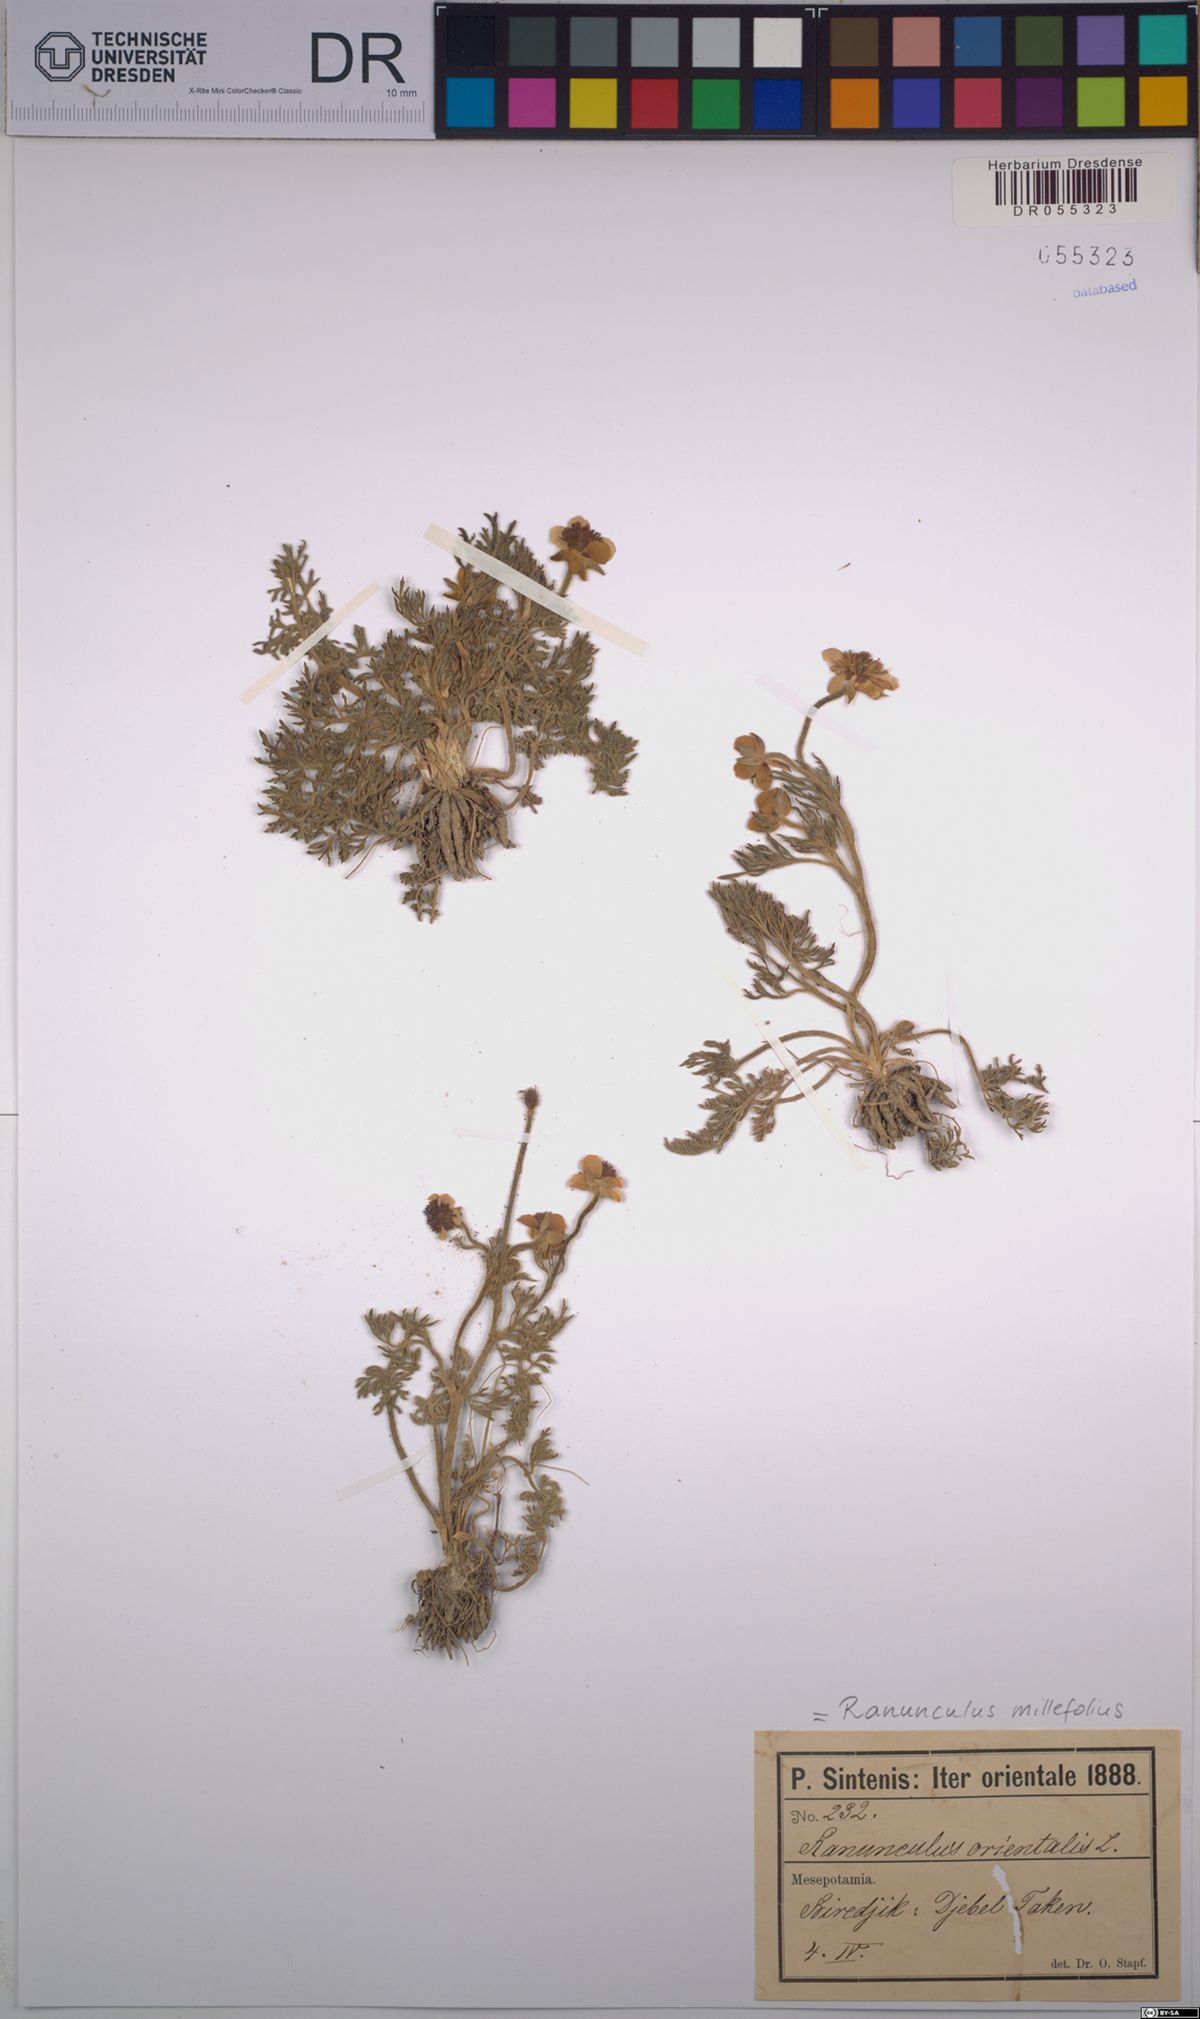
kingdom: Plantae
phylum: Tracheophyta
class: Magnoliopsida
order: Ranunculales
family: Ranunculaceae
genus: Ranunculus
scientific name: Ranunculus millefolius
